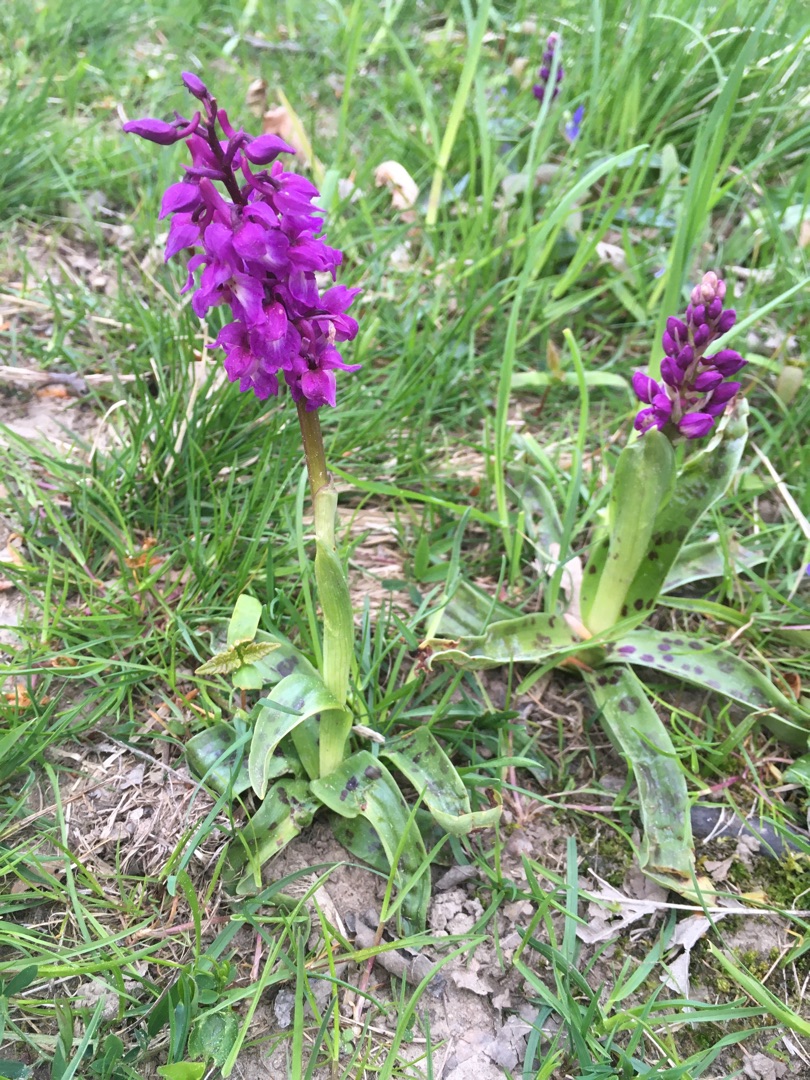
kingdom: Plantae
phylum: Tracheophyta
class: Liliopsida
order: Asparagales
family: Orchidaceae
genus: Orchis
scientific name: Orchis mascula
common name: Tyndakset gøgeurt
